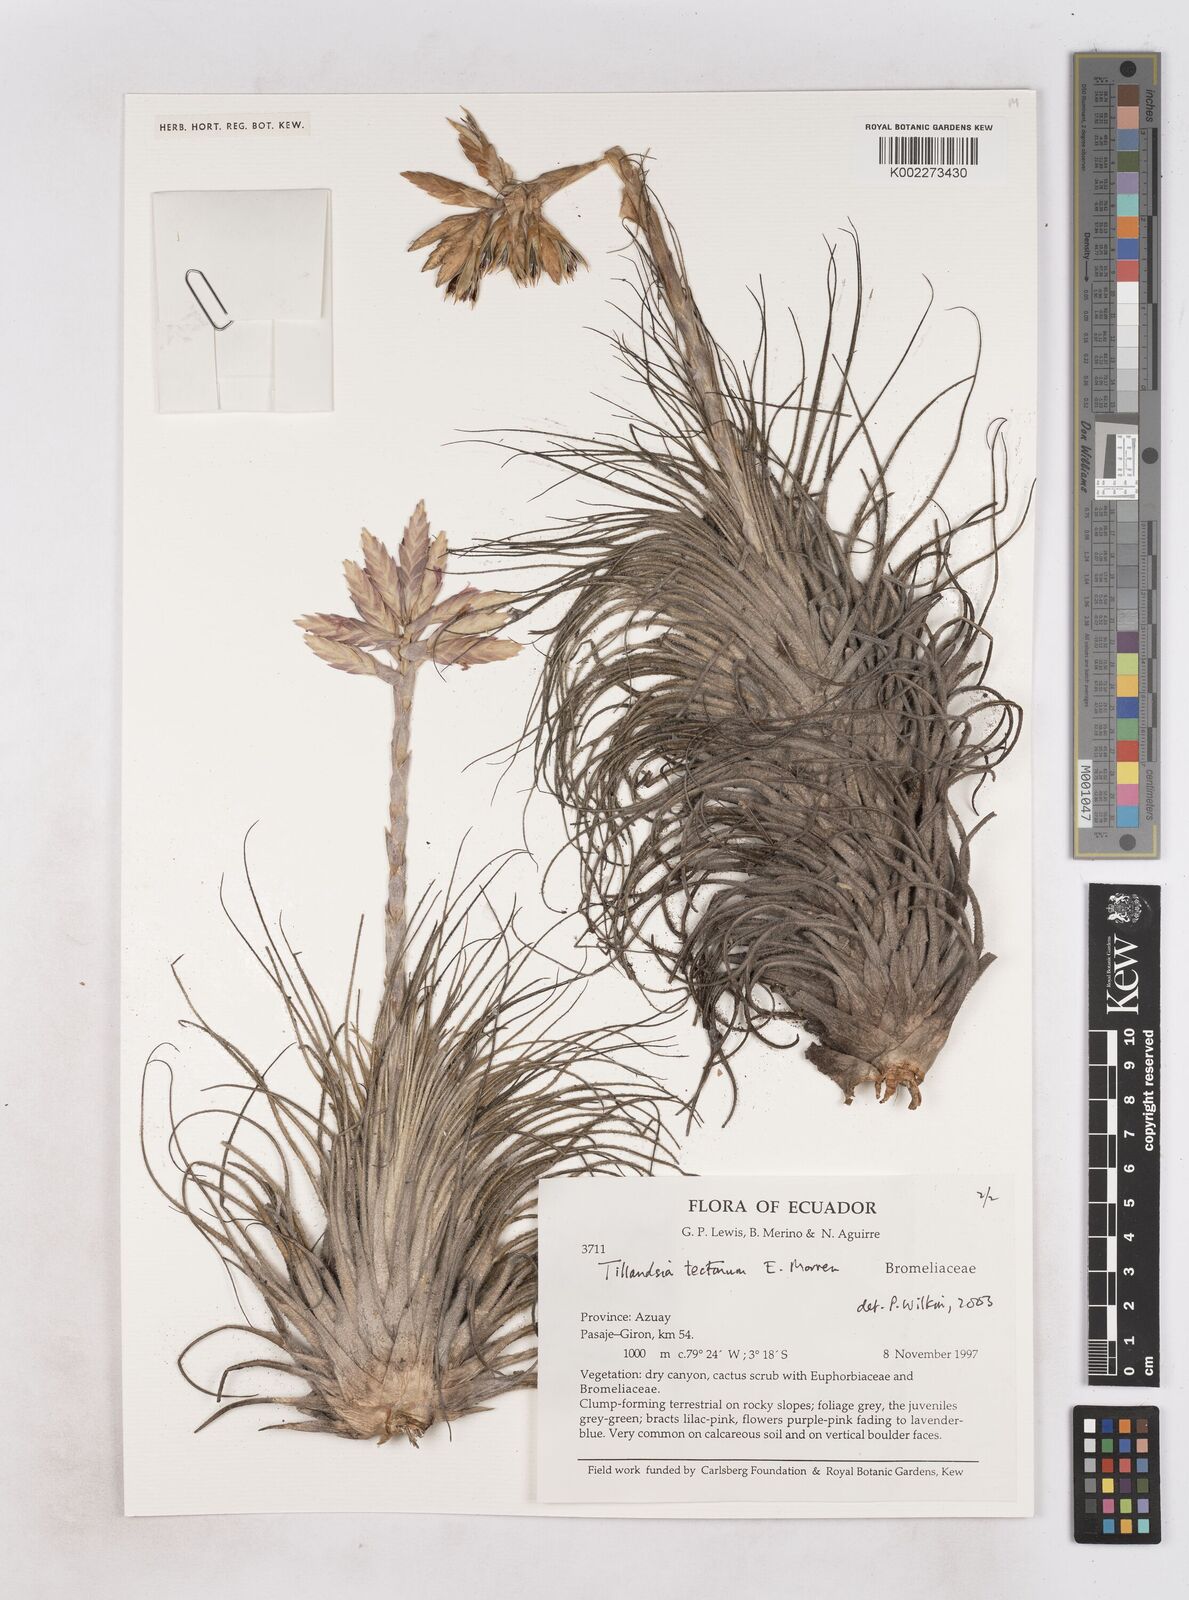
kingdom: Plantae
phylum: Tracheophyta
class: Liliopsida
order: Poales
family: Bromeliaceae
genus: Tillandsia
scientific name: Tillandsia tectorum
